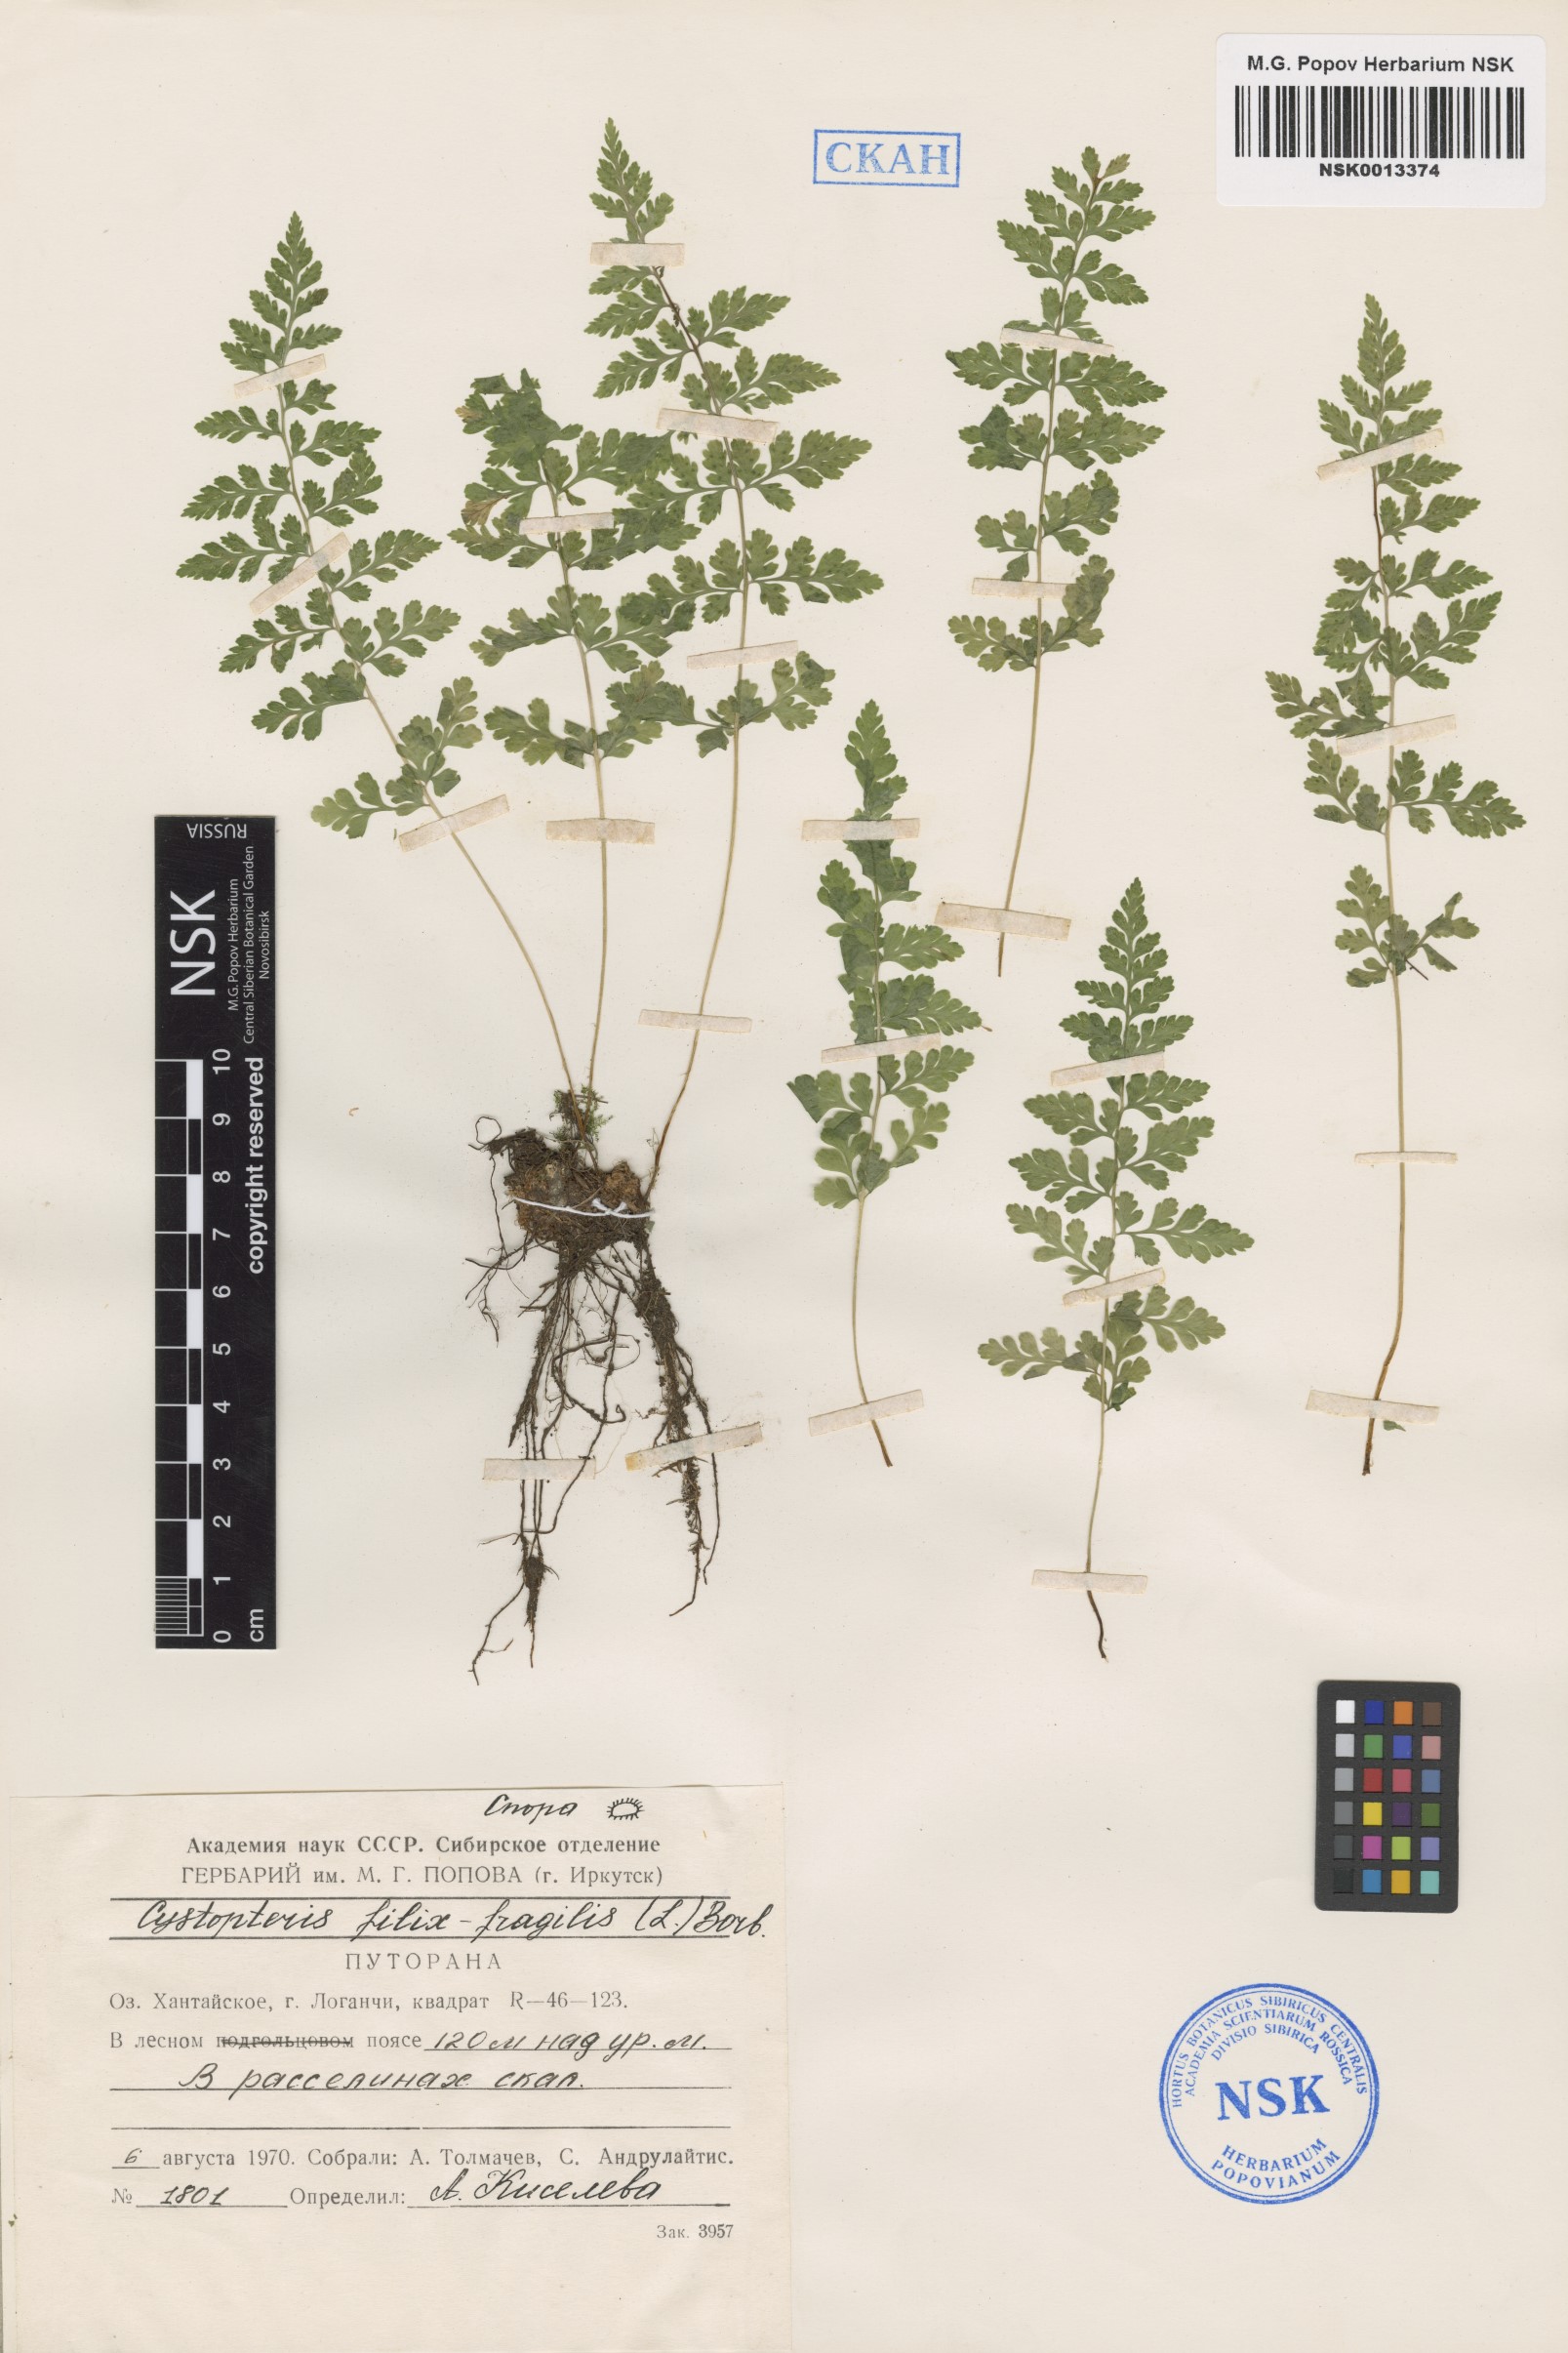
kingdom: Plantae
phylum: Tracheophyta
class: Polypodiopsida
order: Polypodiales
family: Cystopteridaceae
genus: Cystopteris
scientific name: Cystopteris fragilis
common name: Brittle bladder fern
